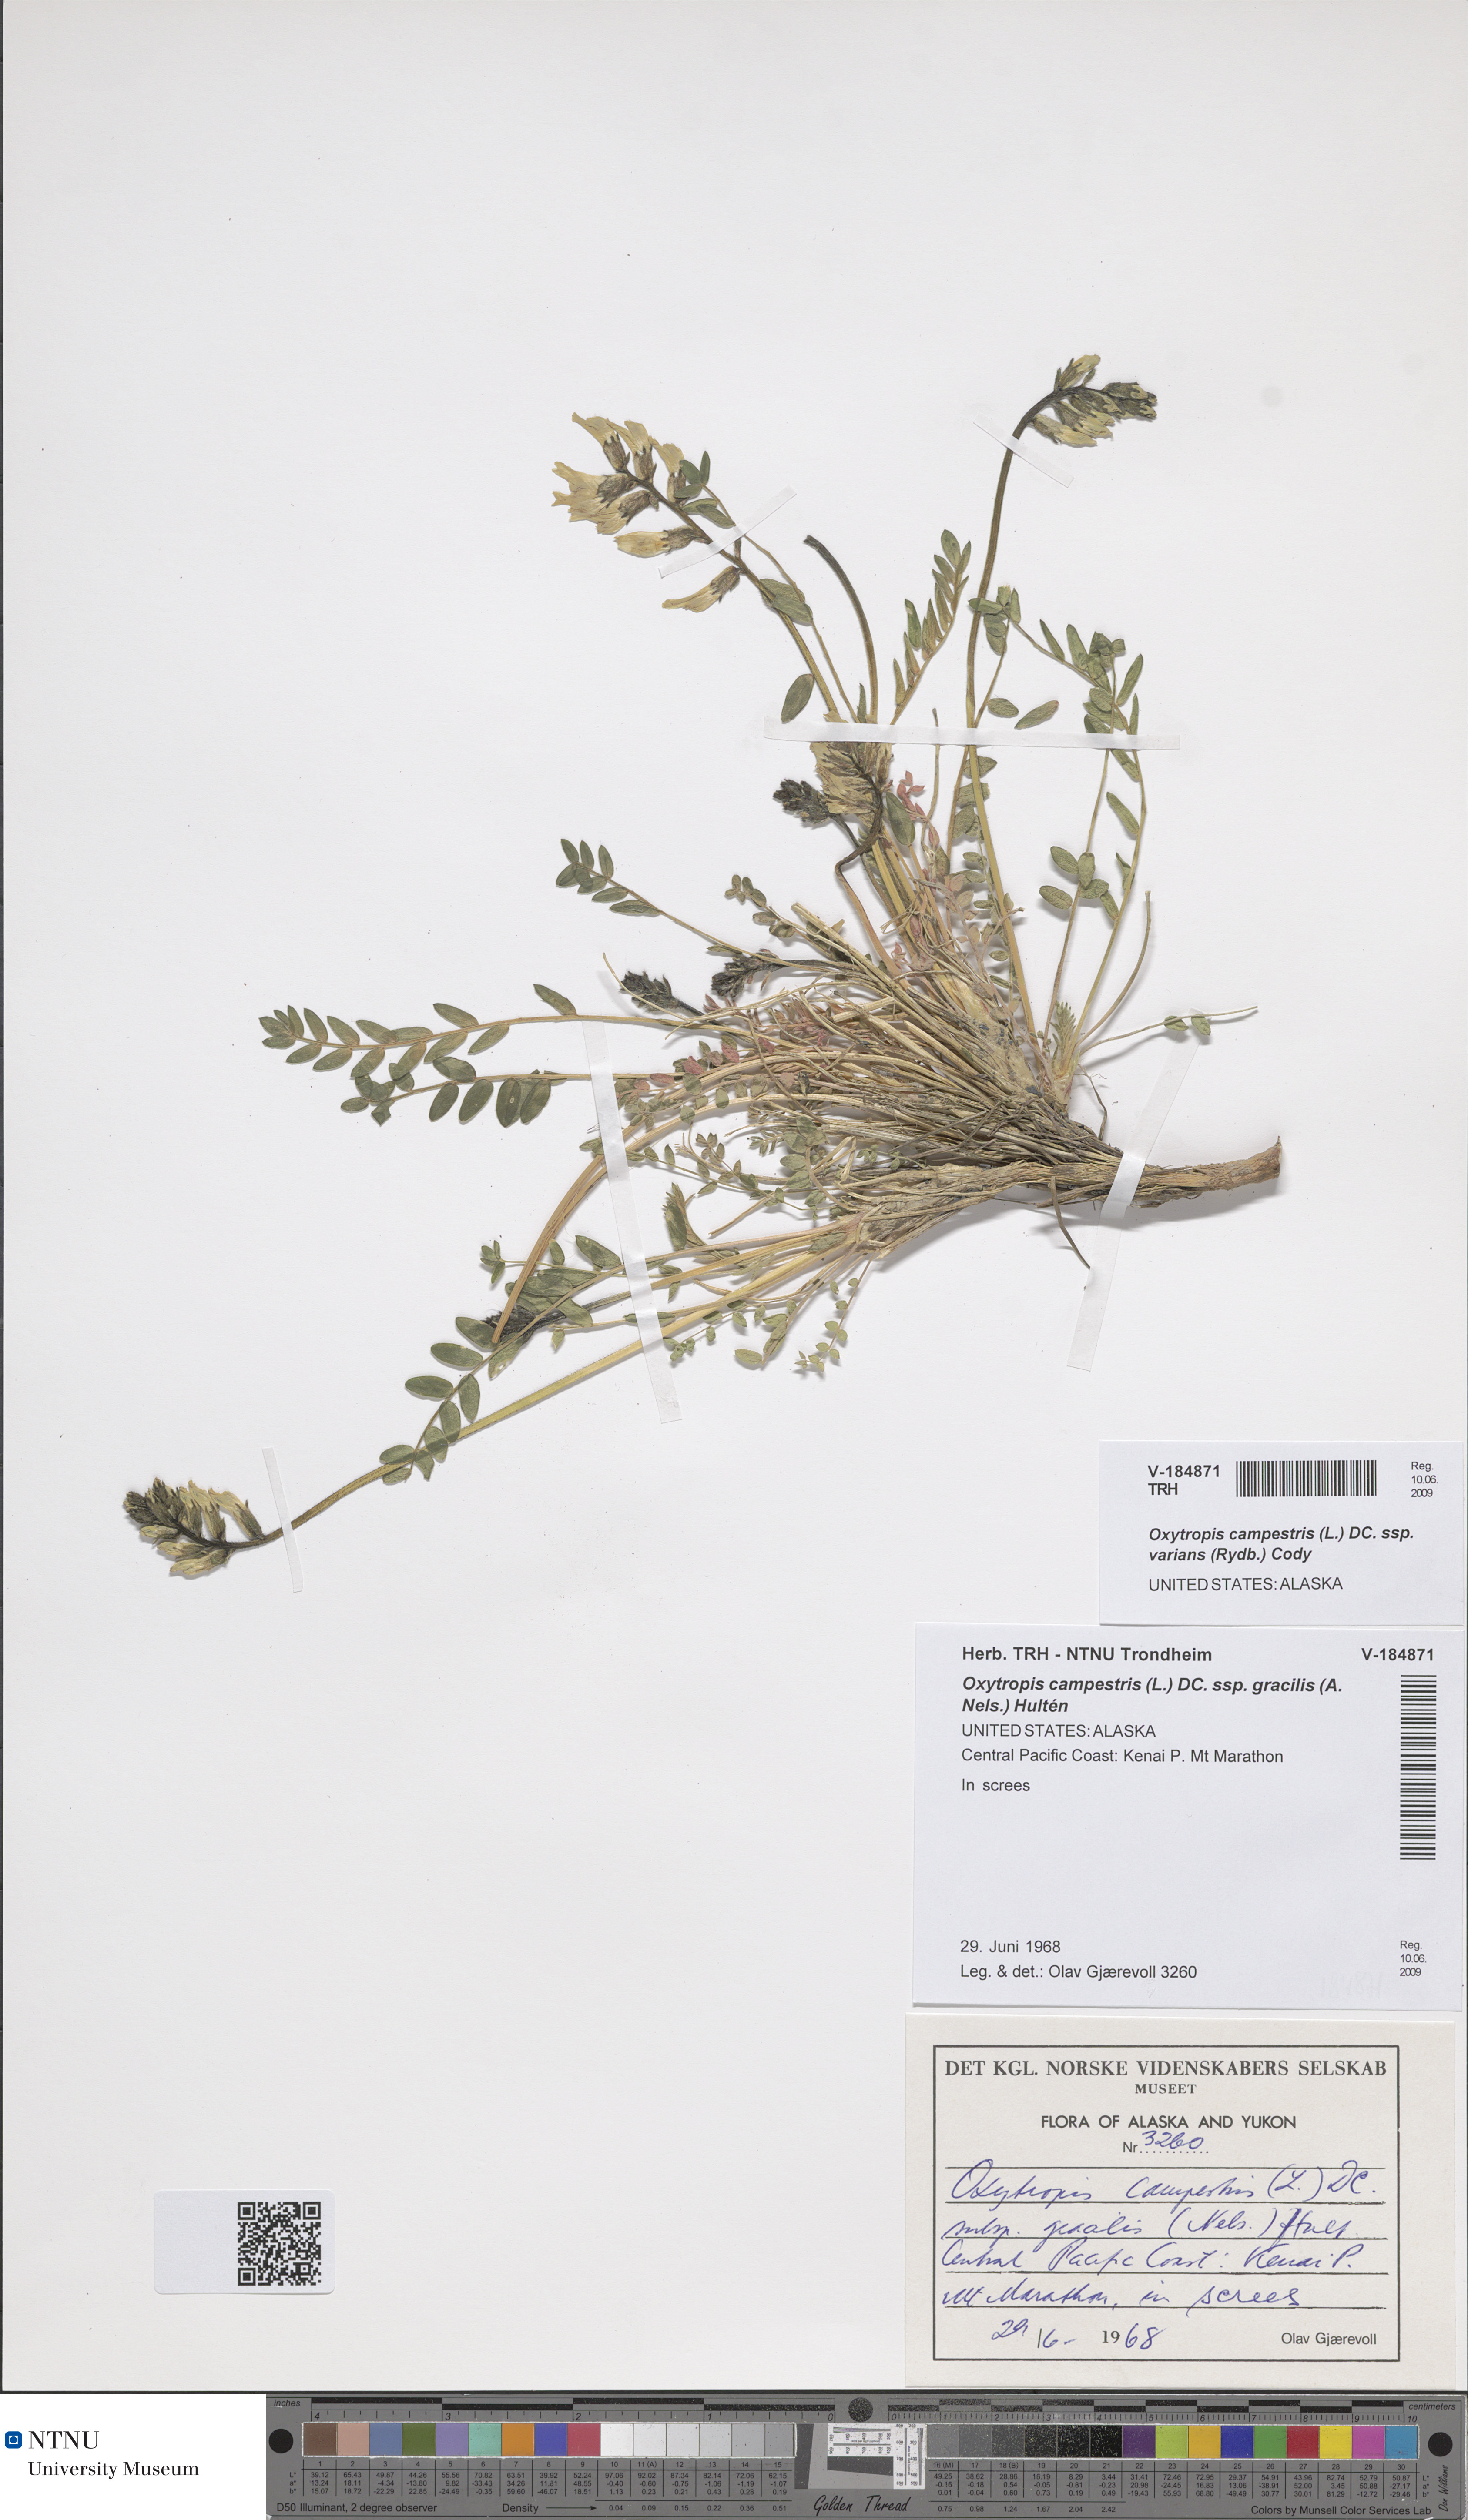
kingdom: Plantae
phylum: Tracheophyta
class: Magnoliopsida
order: Fabales
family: Fabaceae
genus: Oxytropis
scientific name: Oxytropis campestris
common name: Field locoweed
